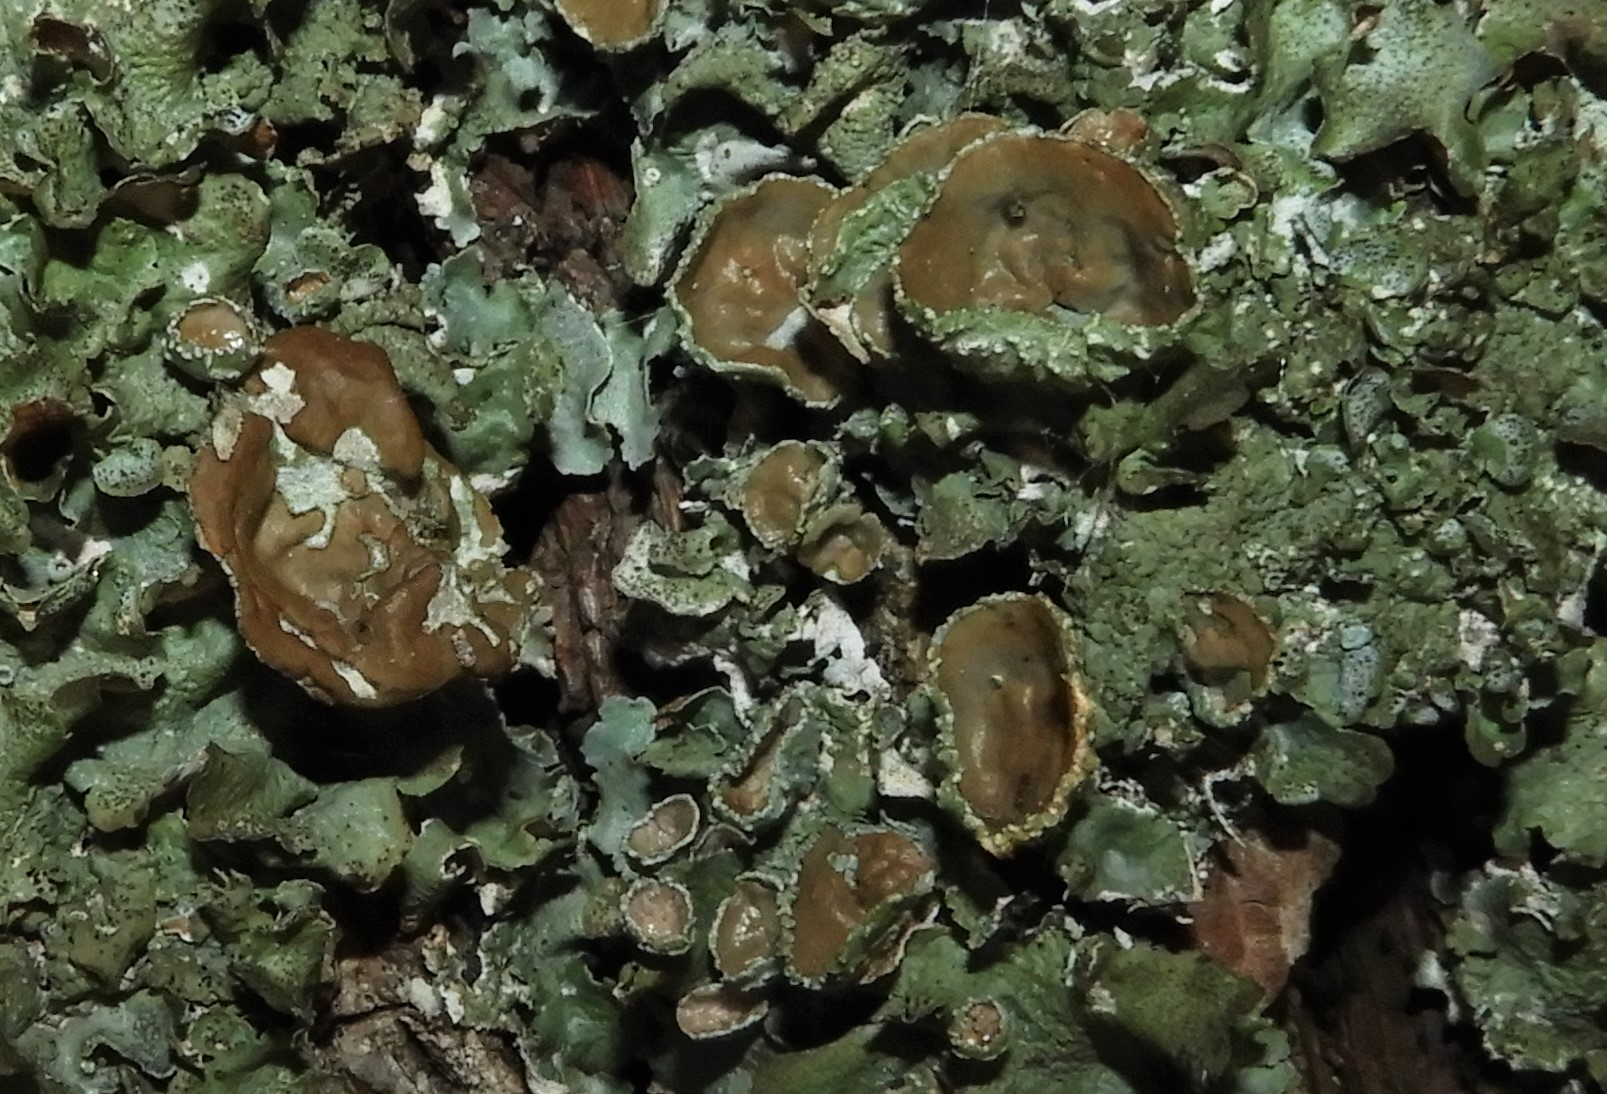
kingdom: Fungi
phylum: Ascomycota
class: Lecanoromycetes
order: Lecanorales
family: Parmeliaceae
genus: Pleurosticta
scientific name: Pleurosticta acetabulum
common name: stor skållav
